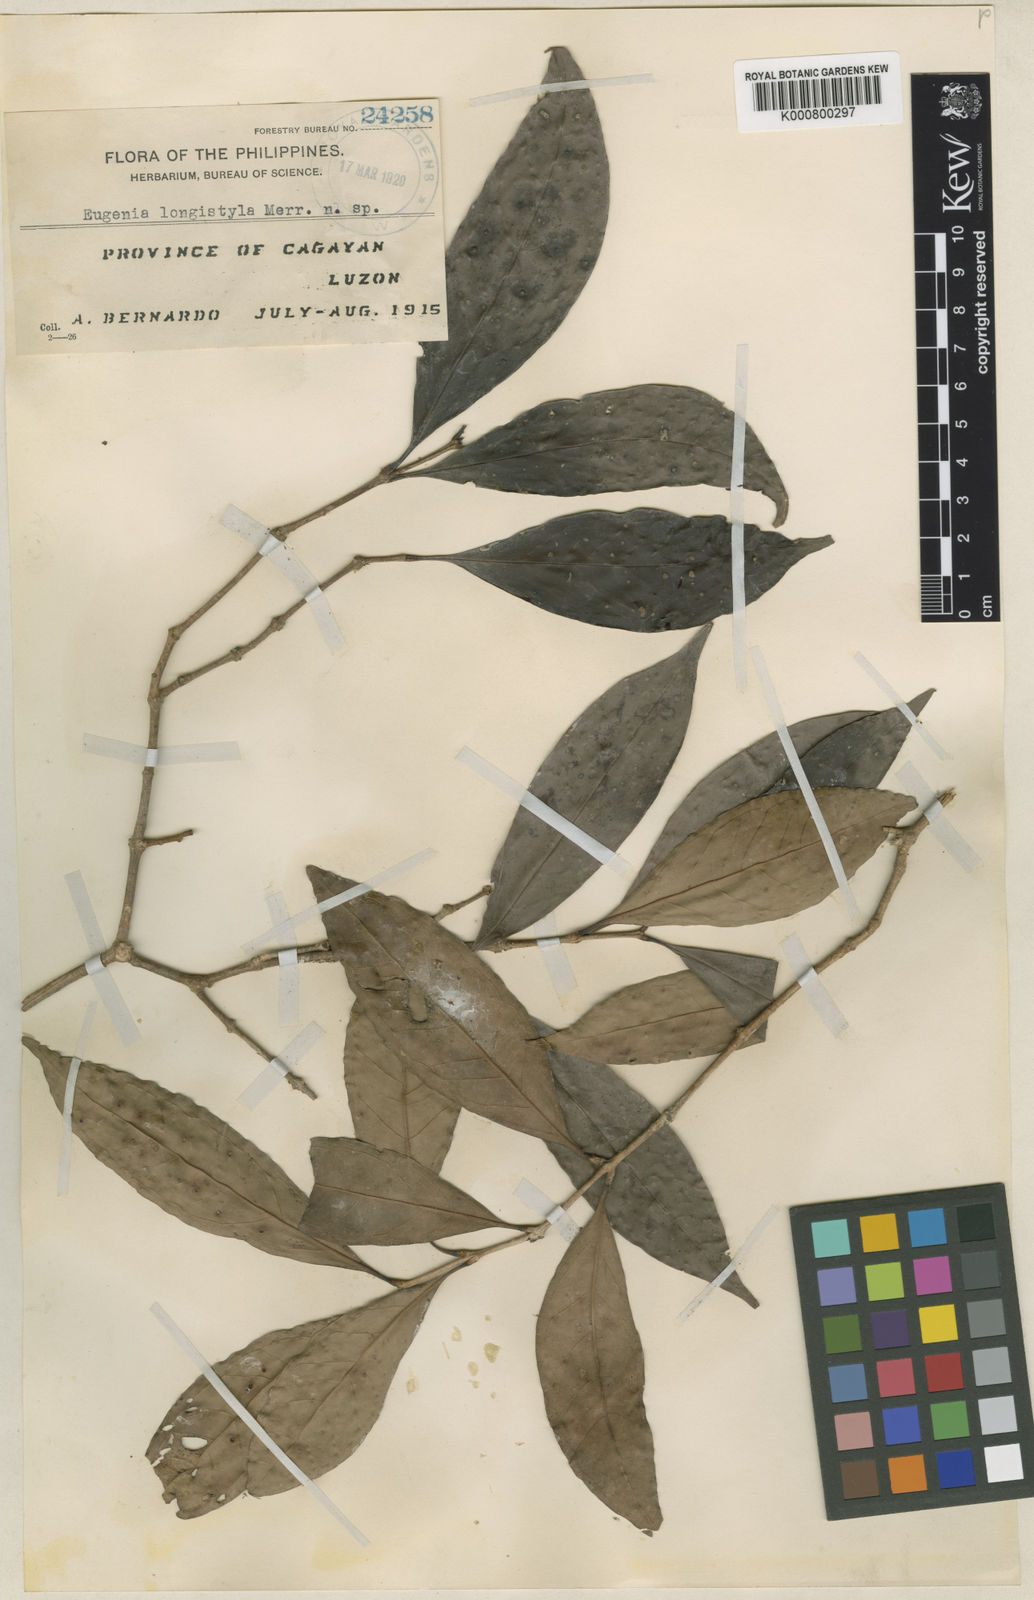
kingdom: Plantae
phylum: Tracheophyta
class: Magnoliopsida
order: Myrtales
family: Myrtaceae
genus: Syzygium
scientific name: Syzygium longistylum
